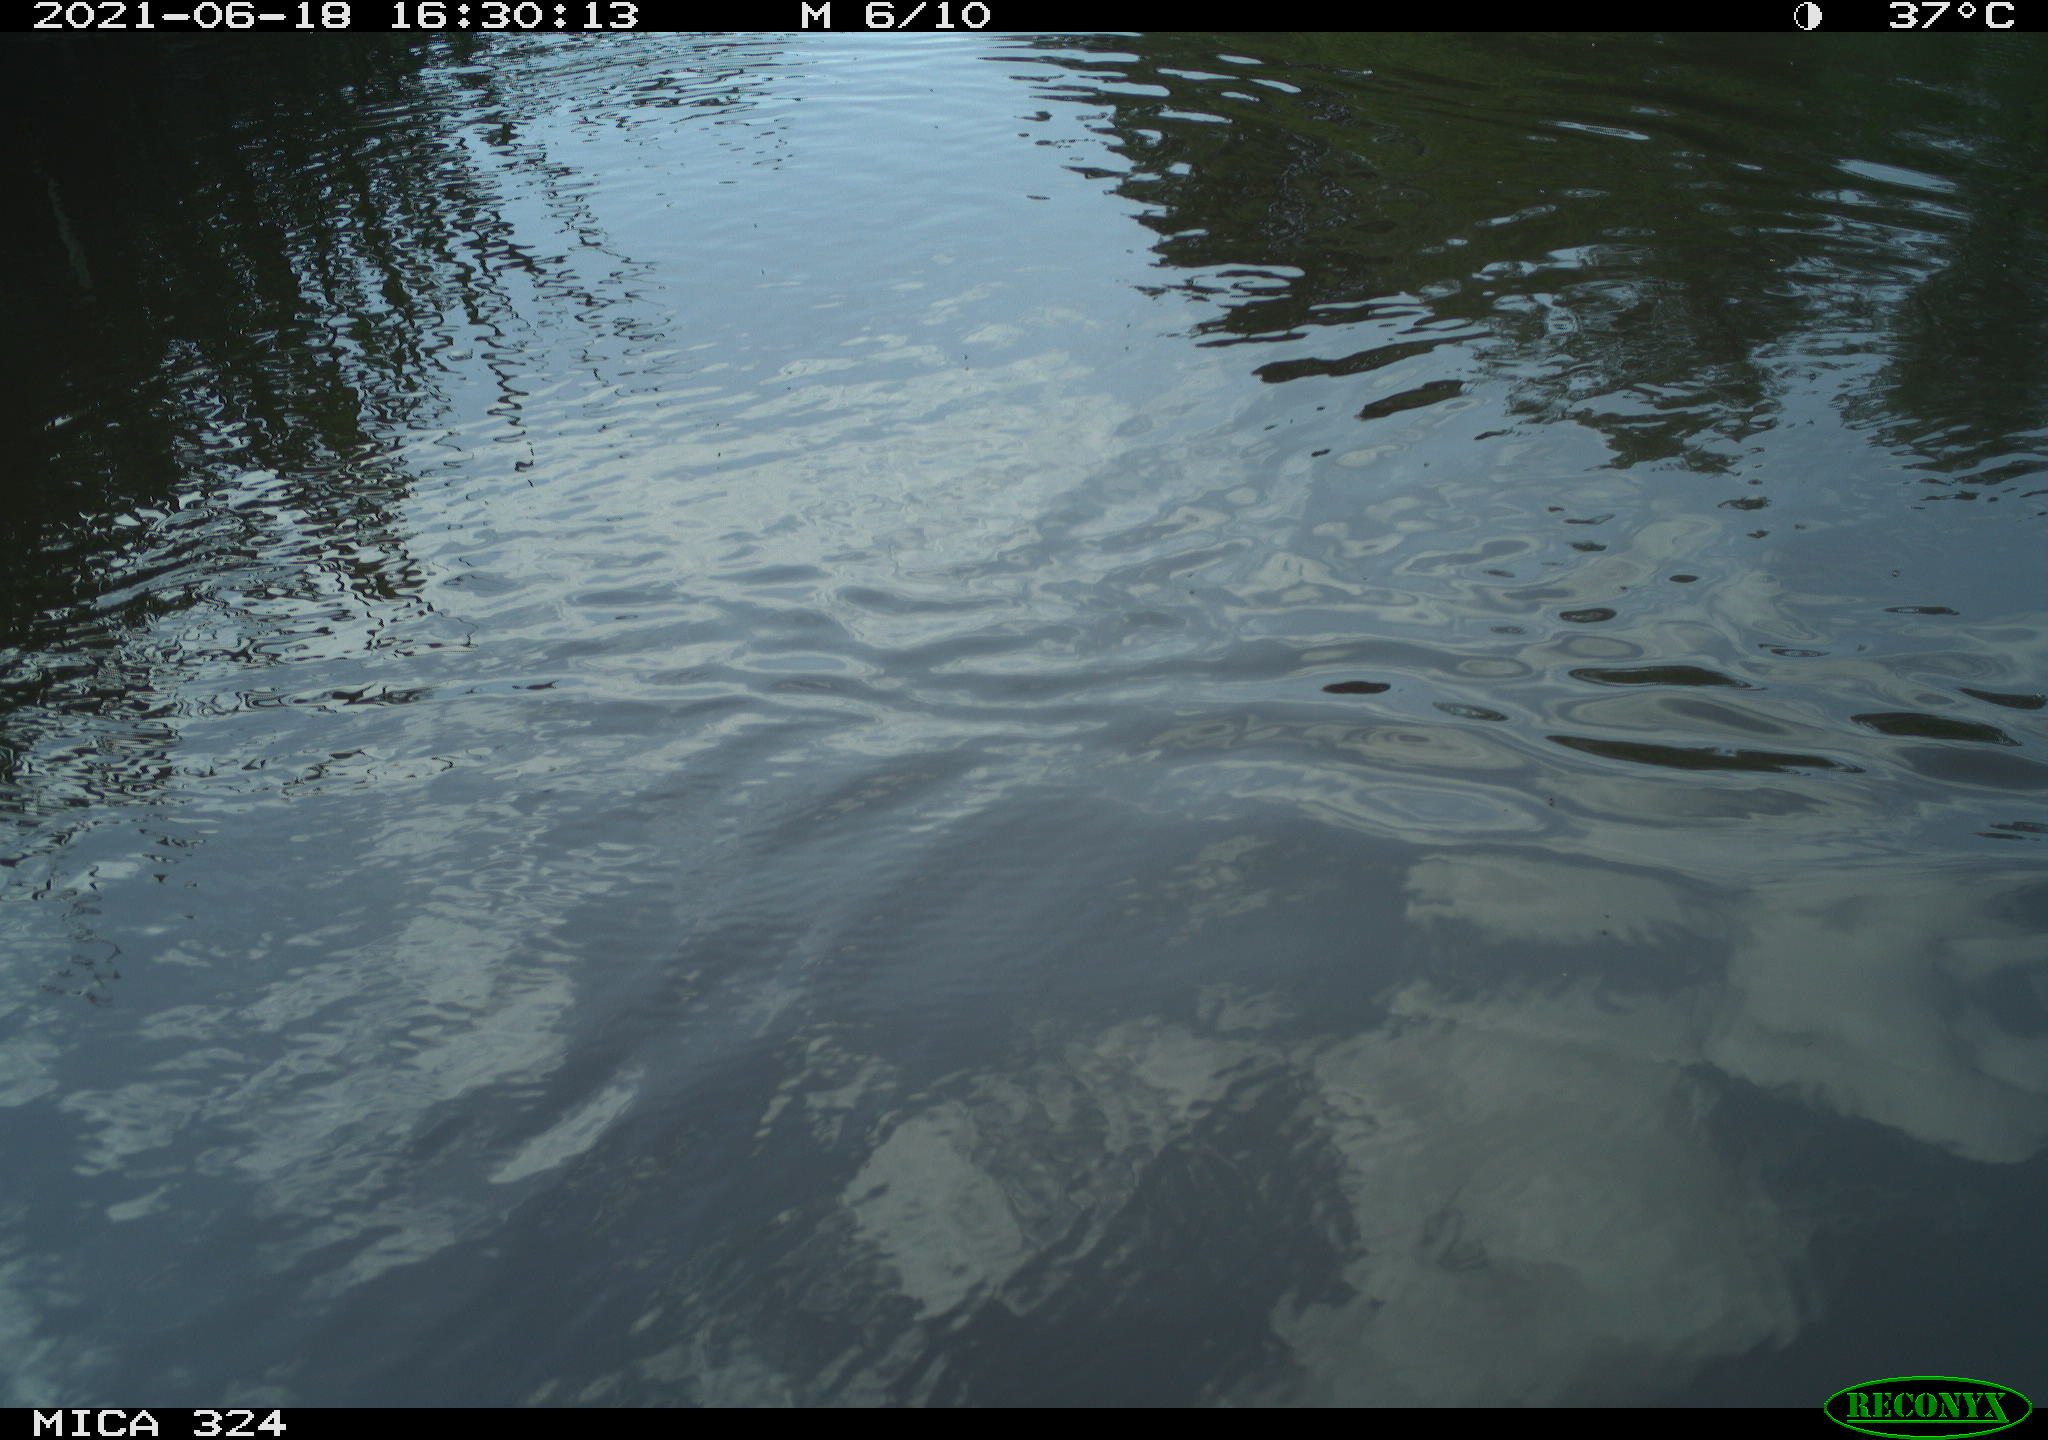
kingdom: Animalia
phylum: Chordata
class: Aves
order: Gruiformes
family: Rallidae
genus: Gallinula
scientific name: Gallinula chloropus
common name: Common moorhen
